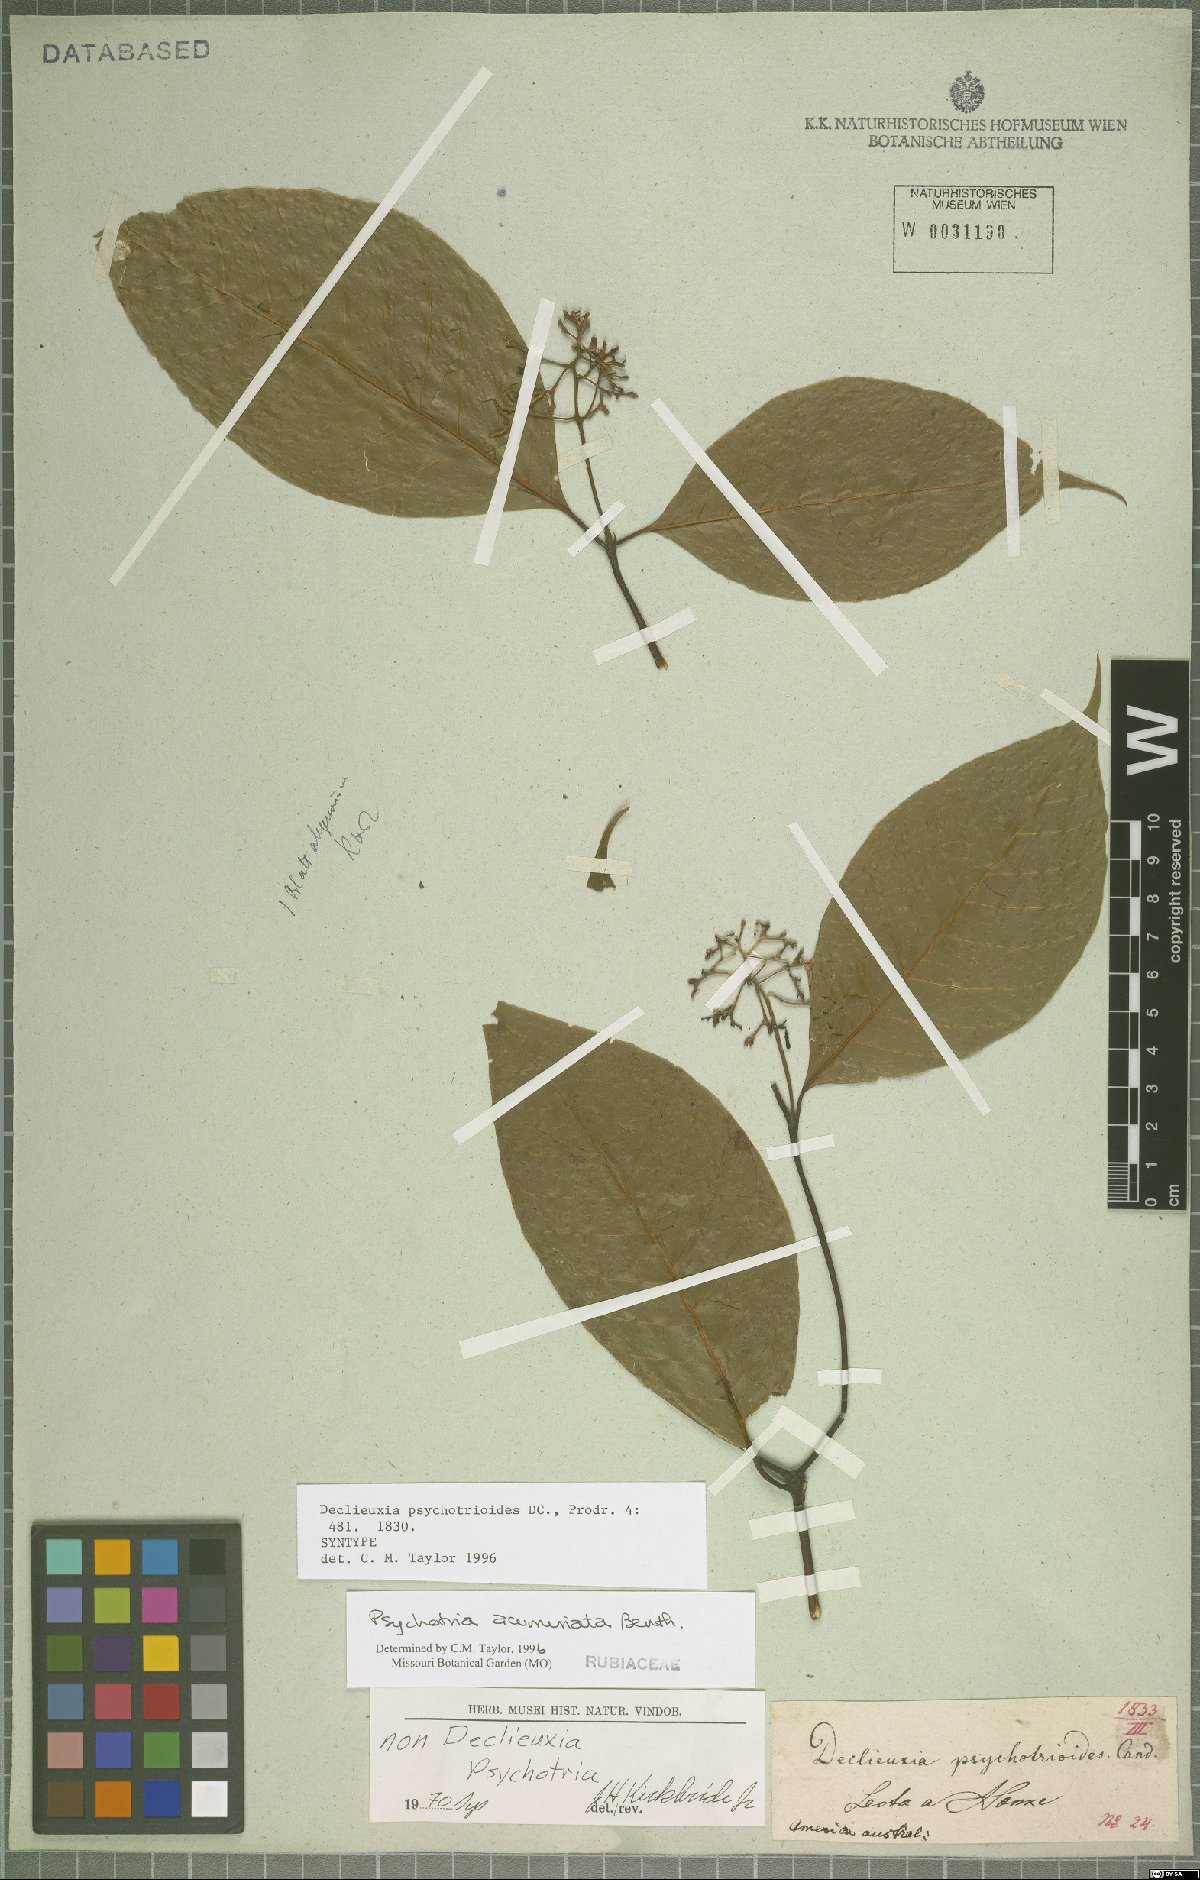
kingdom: Plantae
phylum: Tracheophyta
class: Magnoliopsida
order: Gentianales
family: Rubiaceae
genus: Palicourea
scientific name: Palicourea acuminata
